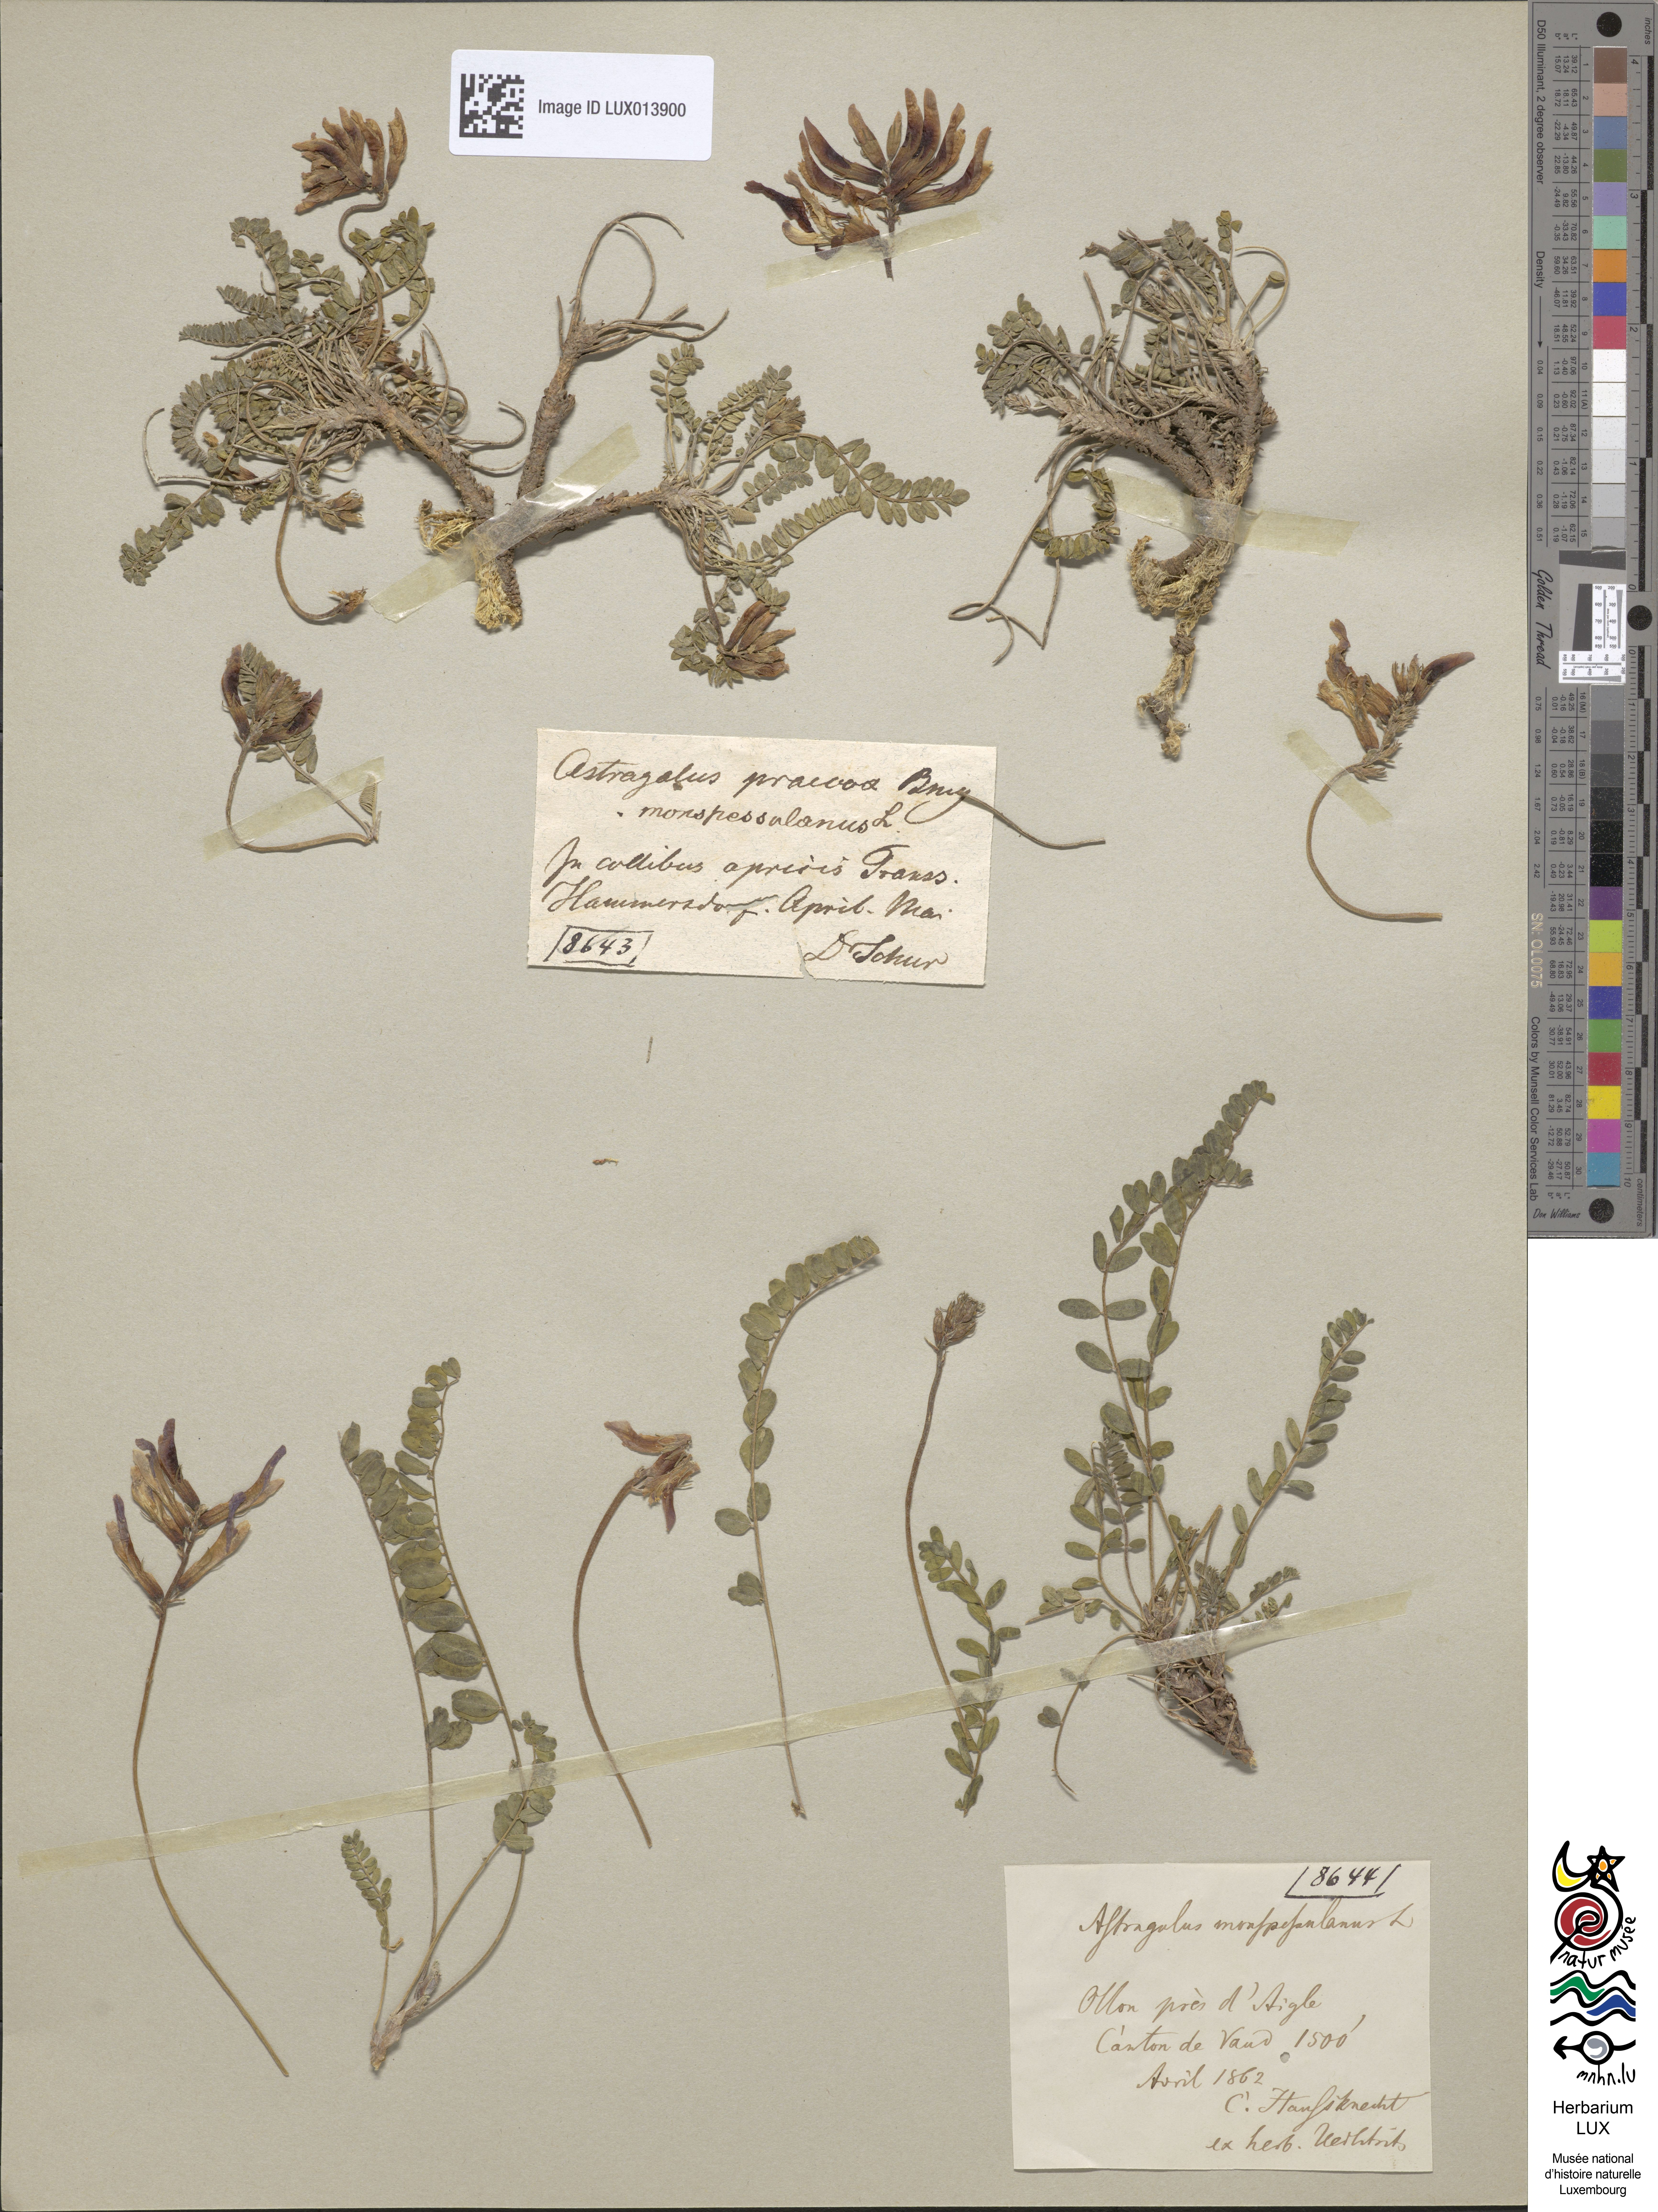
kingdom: Plantae
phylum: Tracheophyta
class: Magnoliopsida
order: Fabales
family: Fabaceae
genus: Astragalus
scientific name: Astragalus monspessulanus
